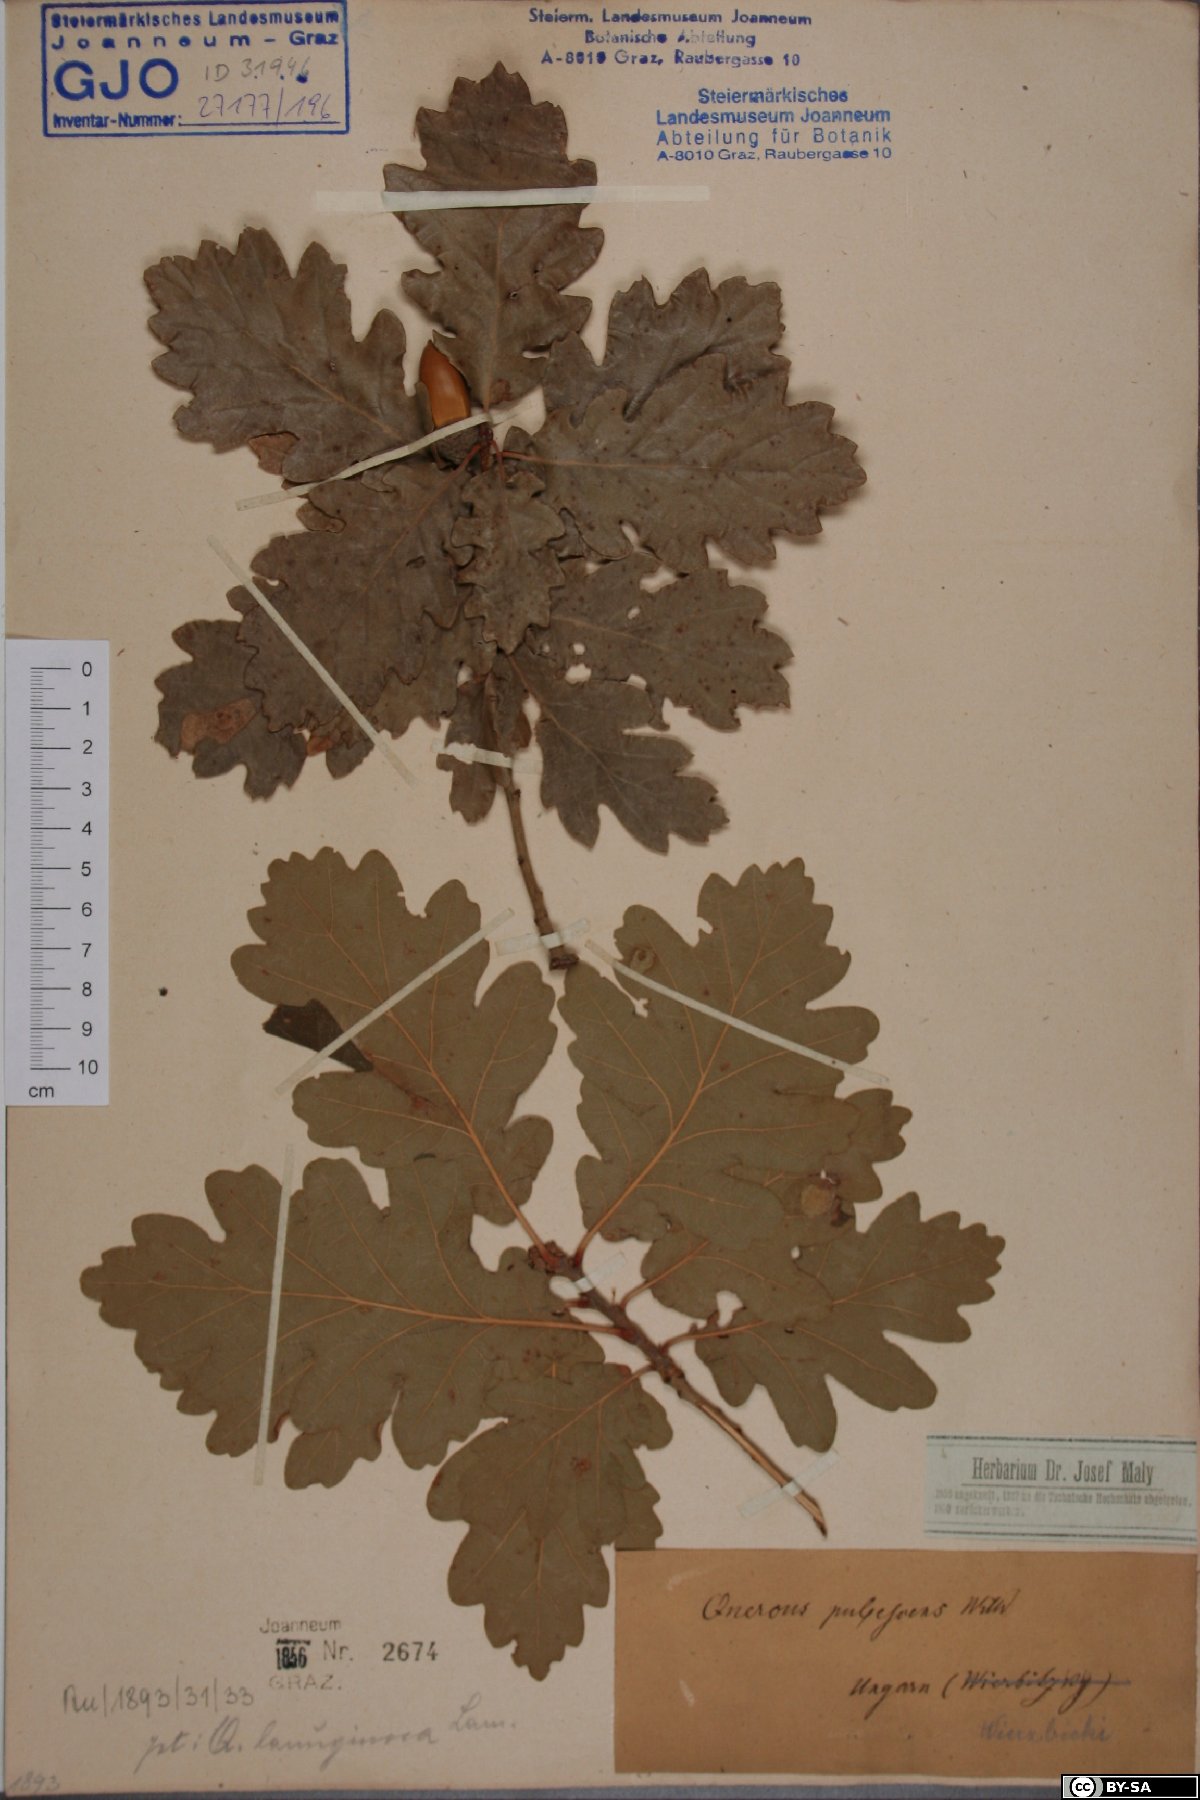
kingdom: Plantae
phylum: Tracheophyta
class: Magnoliopsida
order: Fagales
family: Fagaceae
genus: Quercus
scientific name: Quercus pubescens
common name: Downy oak
